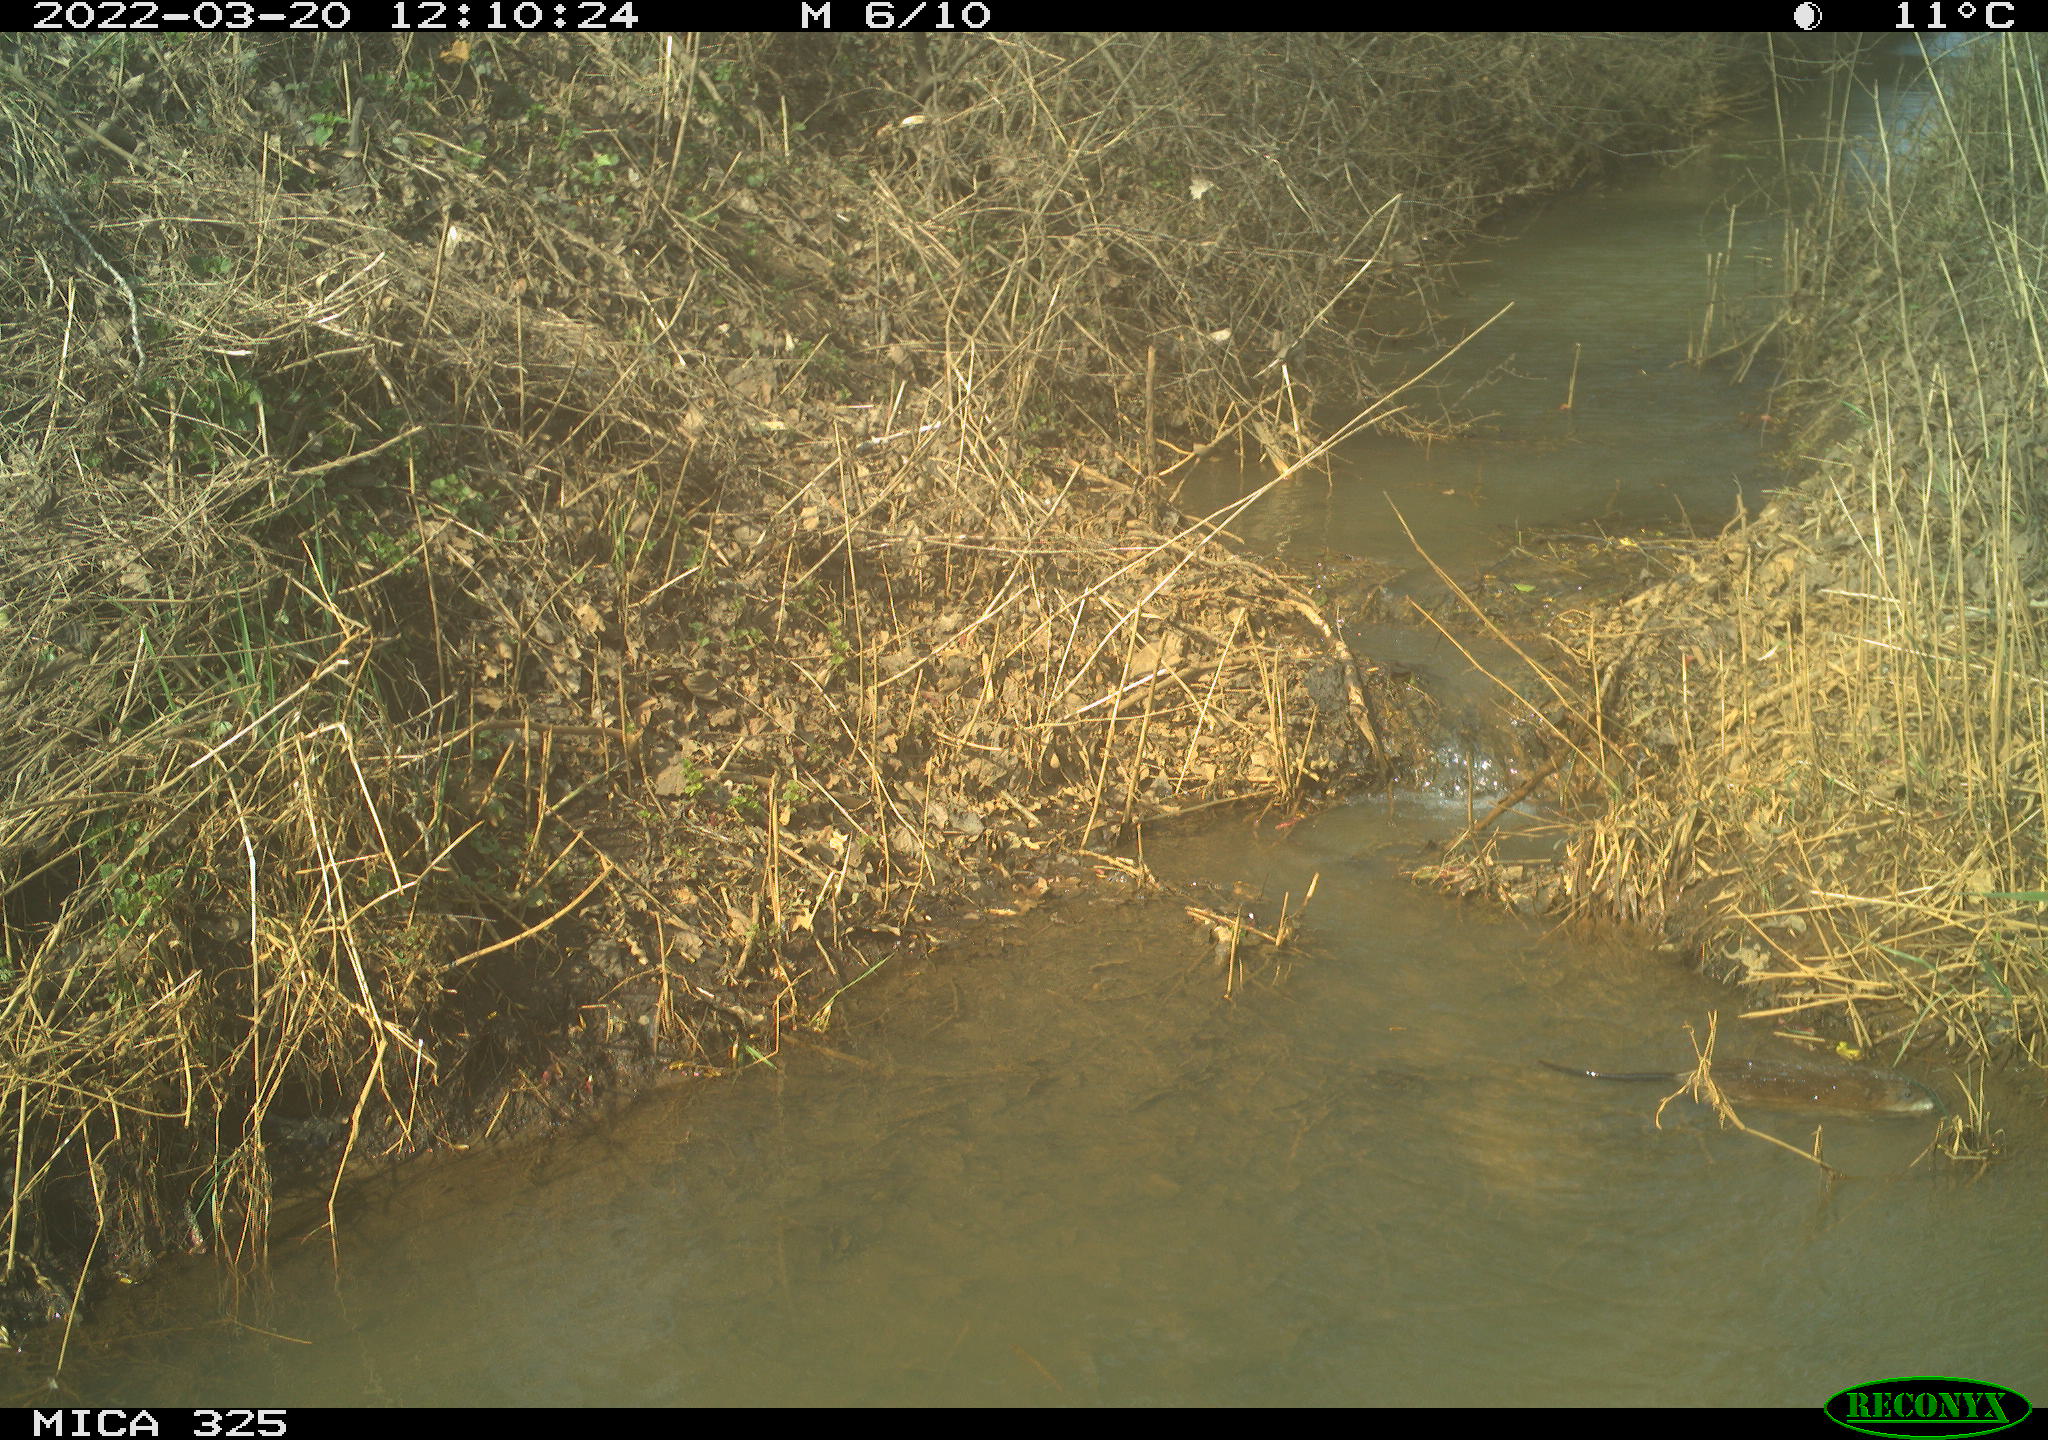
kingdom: Animalia
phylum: Chordata
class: Mammalia
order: Rodentia
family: Cricetidae
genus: Ondatra
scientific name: Ondatra zibethicus
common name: Muskrat
